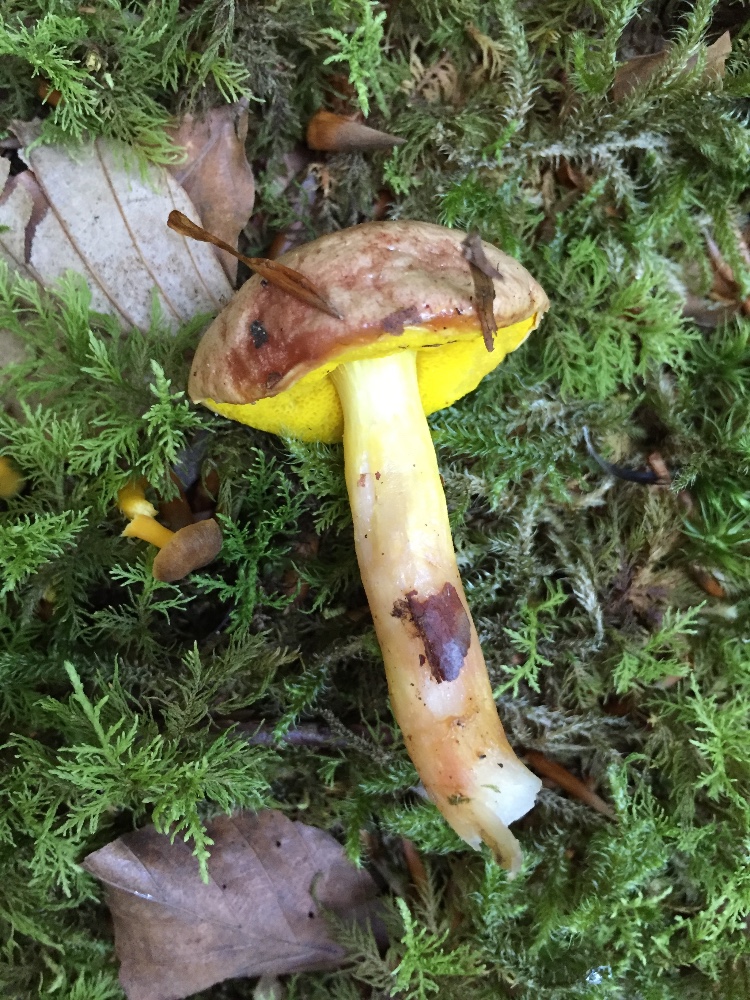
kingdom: Fungi
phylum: Basidiomycota
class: Agaricomycetes
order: Boletales
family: Boletaceae
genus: Aureoboletus
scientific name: Aureoboletus gentilis
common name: guldrørhat
